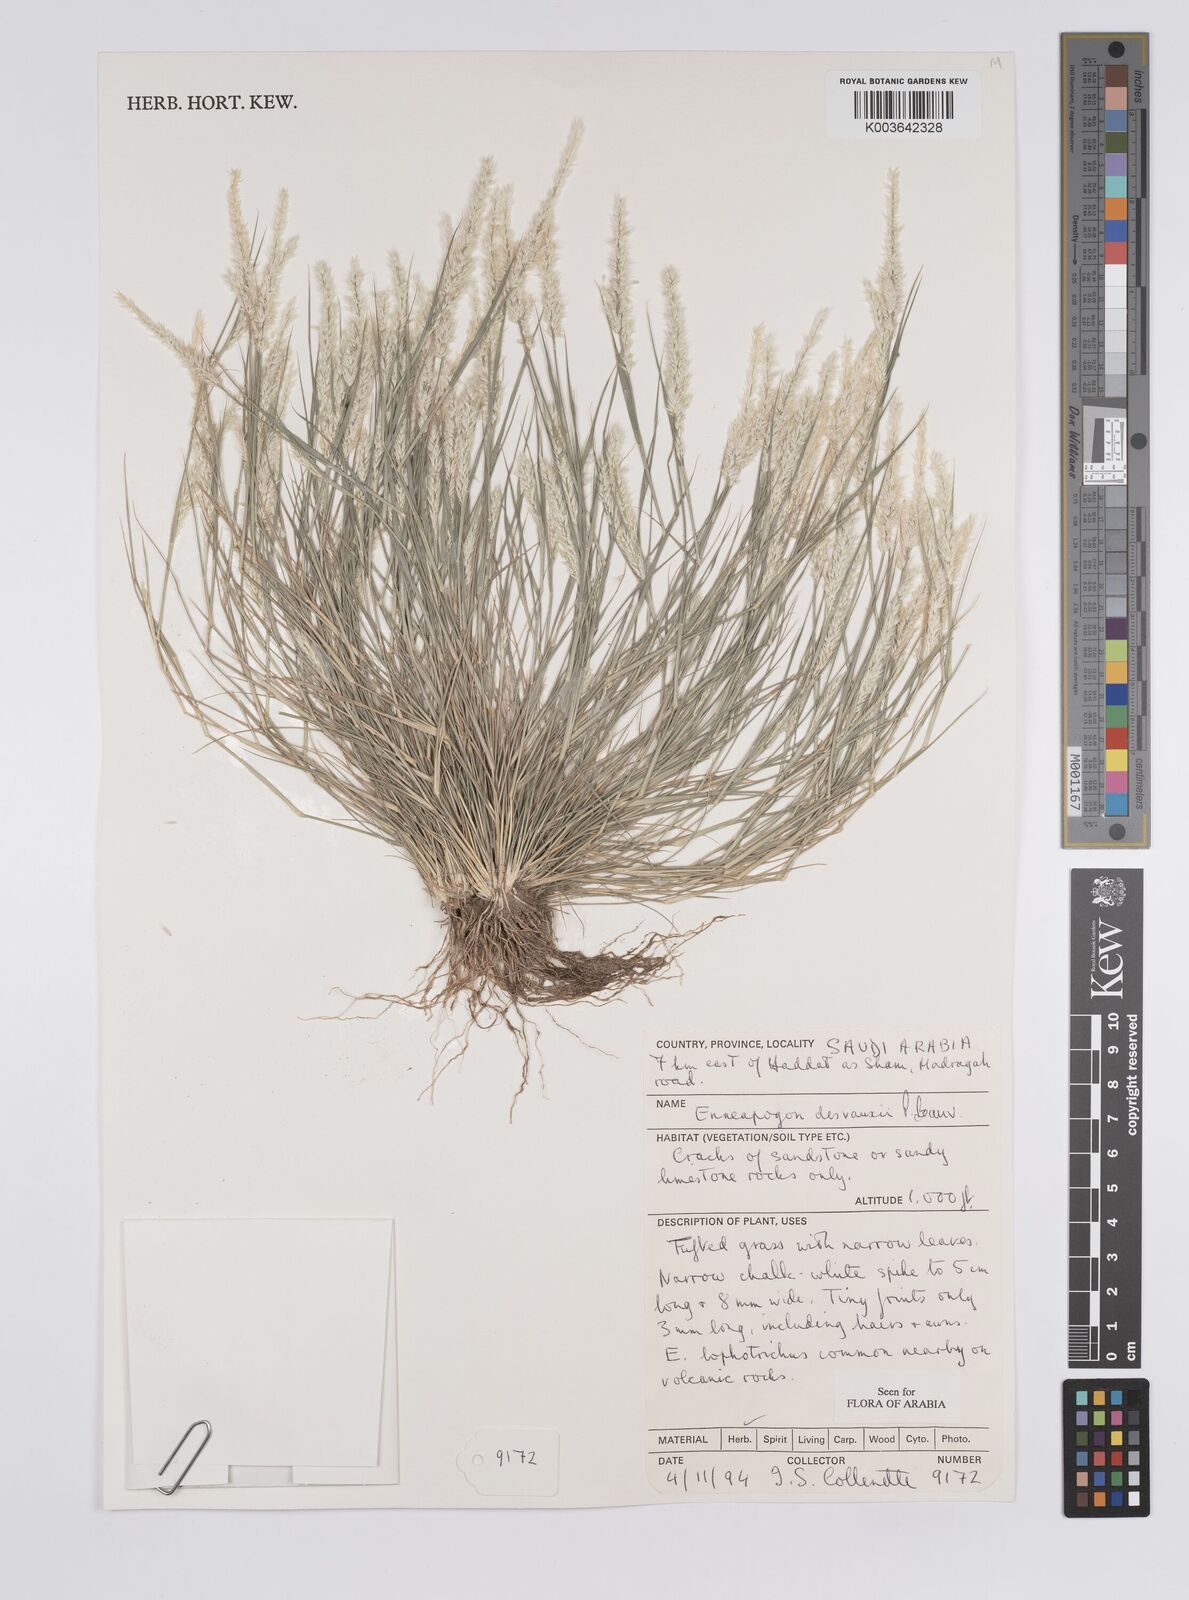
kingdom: Plantae
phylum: Tracheophyta
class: Liliopsida
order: Poales
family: Poaceae
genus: Enneapogon
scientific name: Enneapogon desvauxii
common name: Feather pappus grass
